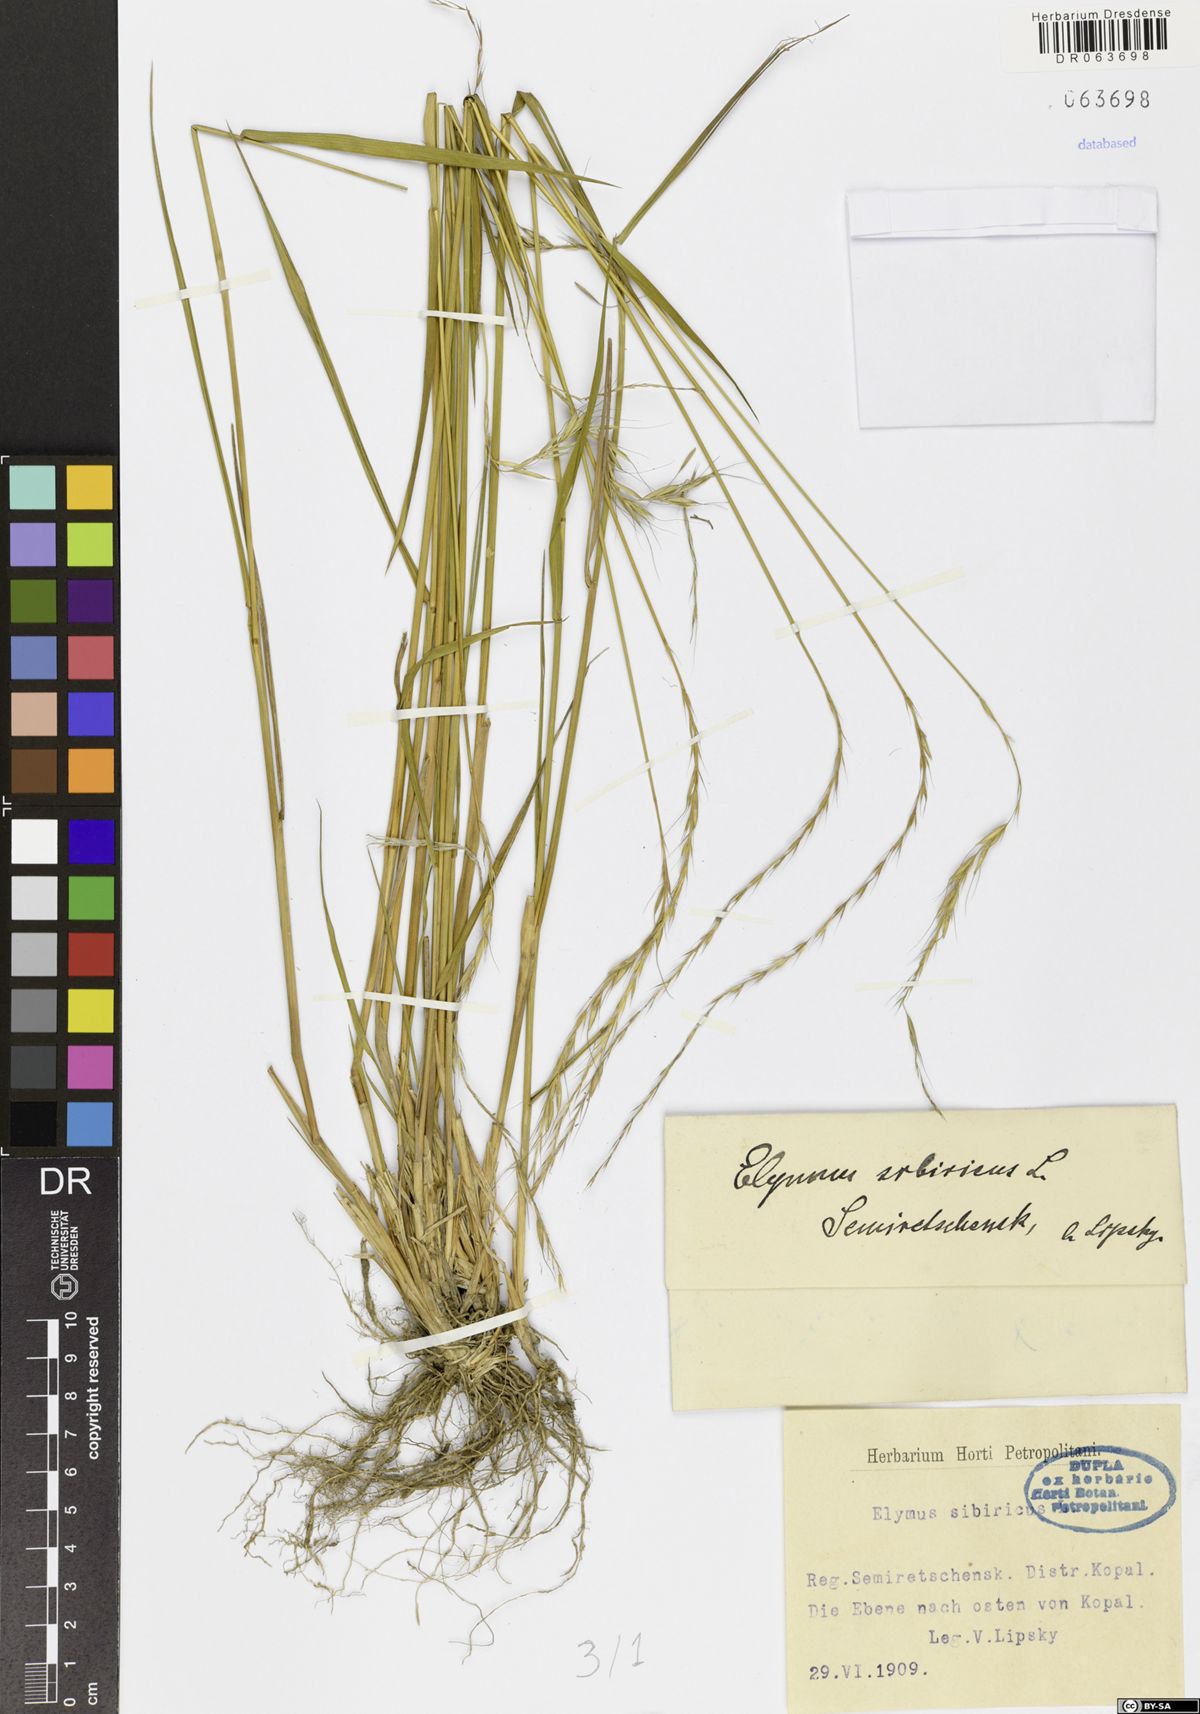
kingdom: Plantae
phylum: Tracheophyta
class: Liliopsida
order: Poales
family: Poaceae
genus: Elymus
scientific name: Elymus sibiricus
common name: Siberian wildrye
